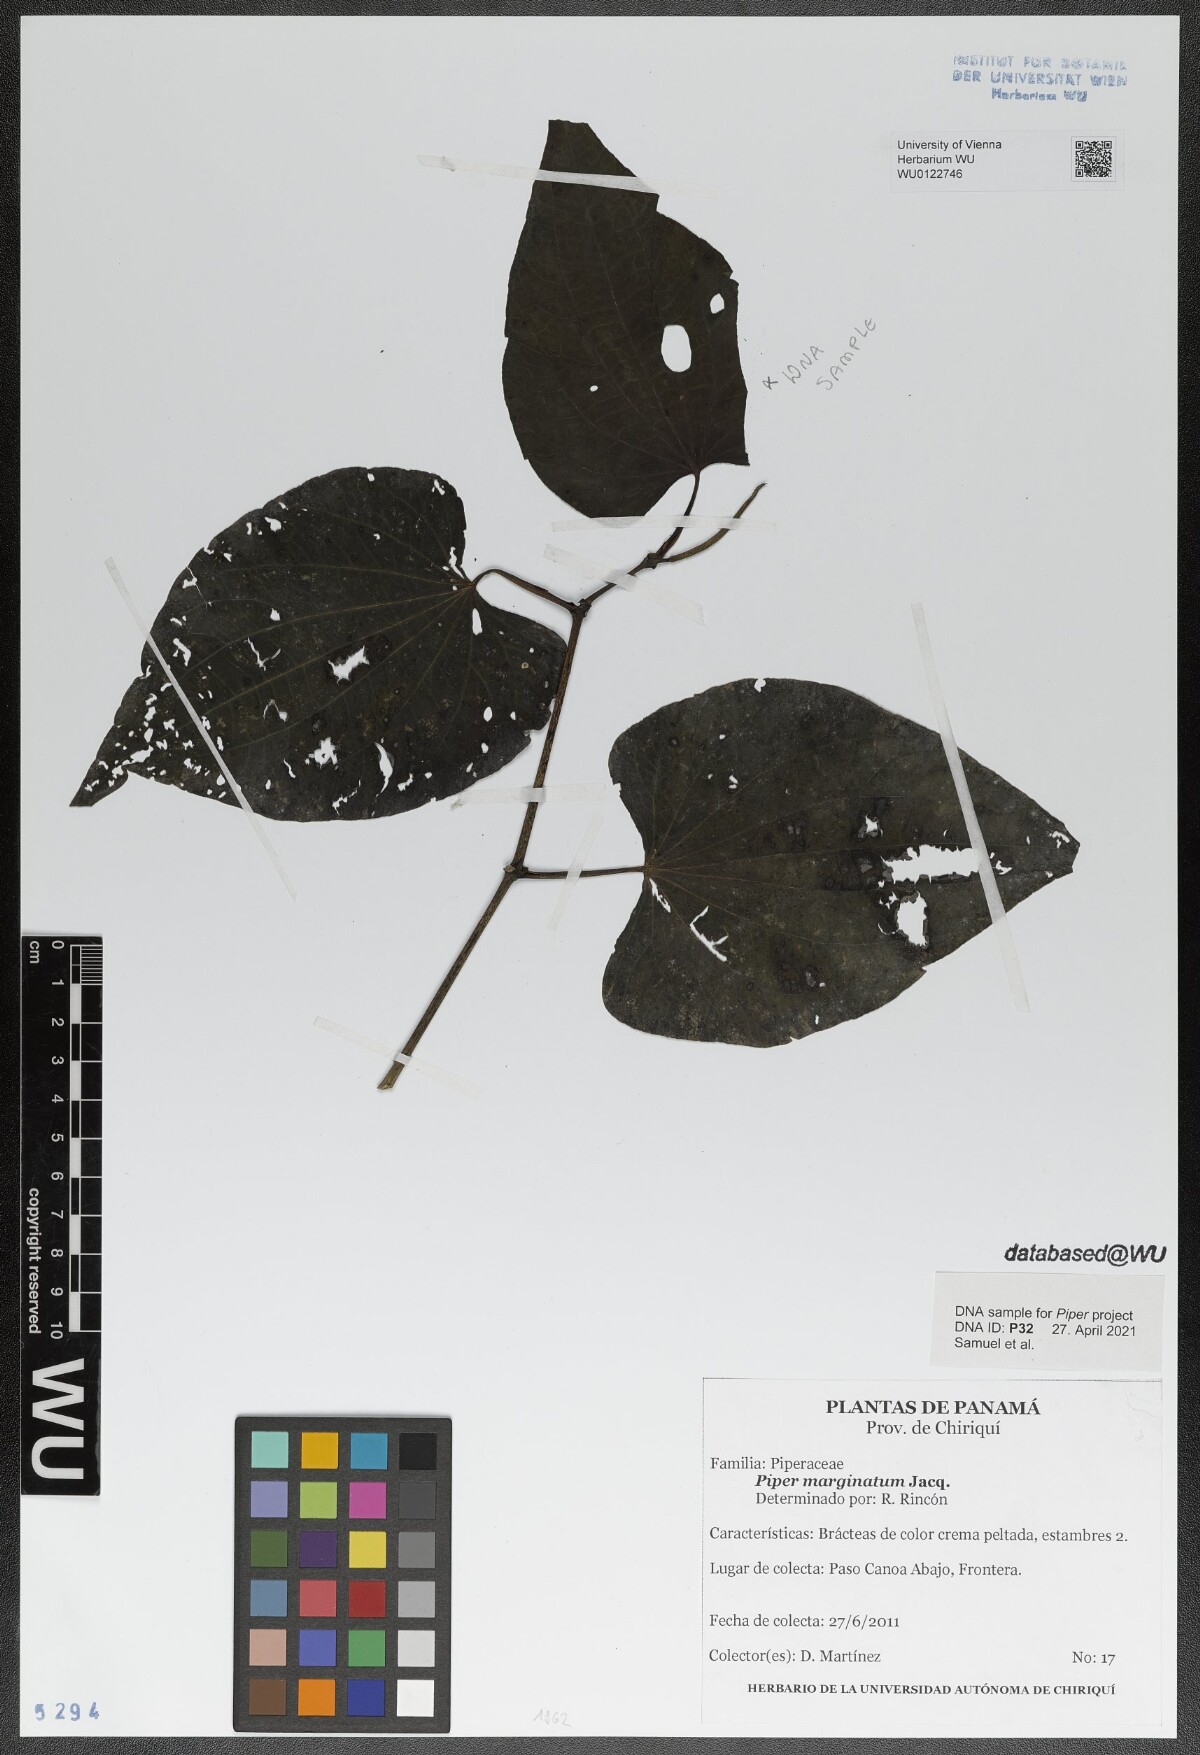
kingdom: Plantae
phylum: Tracheophyta
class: Magnoliopsida
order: Piperales
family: Piperaceae
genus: Piper
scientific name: Piper marginatum
